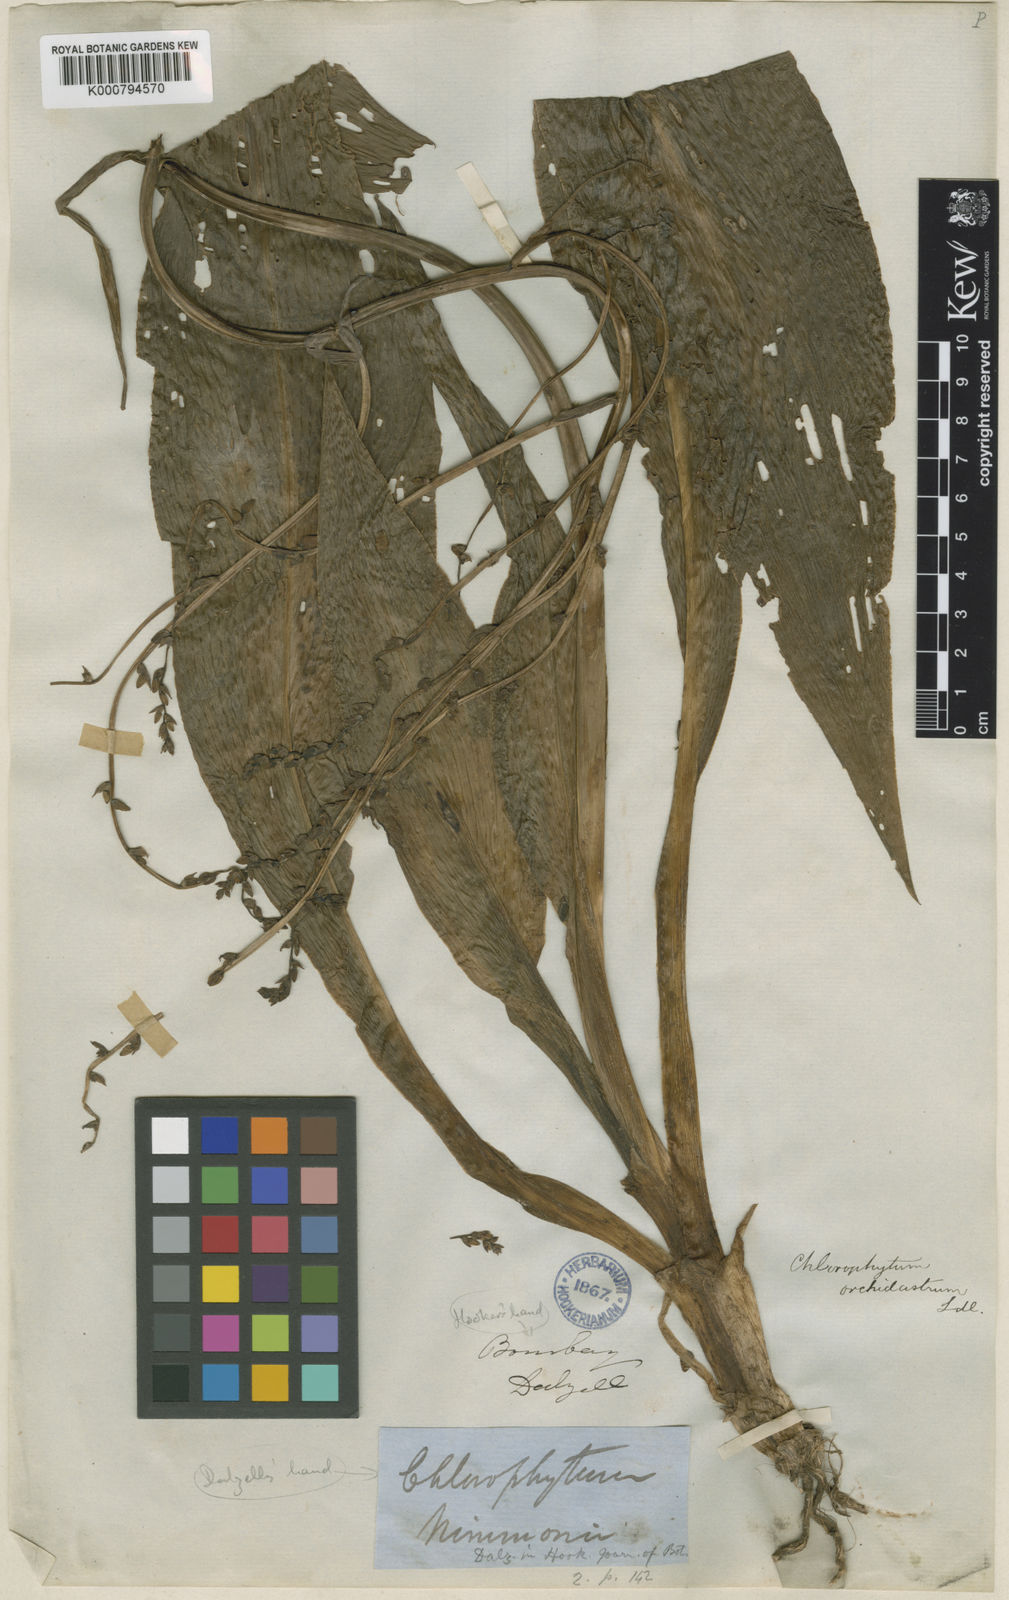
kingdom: Plantae
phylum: Tracheophyta
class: Liliopsida
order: Asparagales
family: Asparagaceae
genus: Chlorophytum
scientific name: Chlorophytum nimmonii
